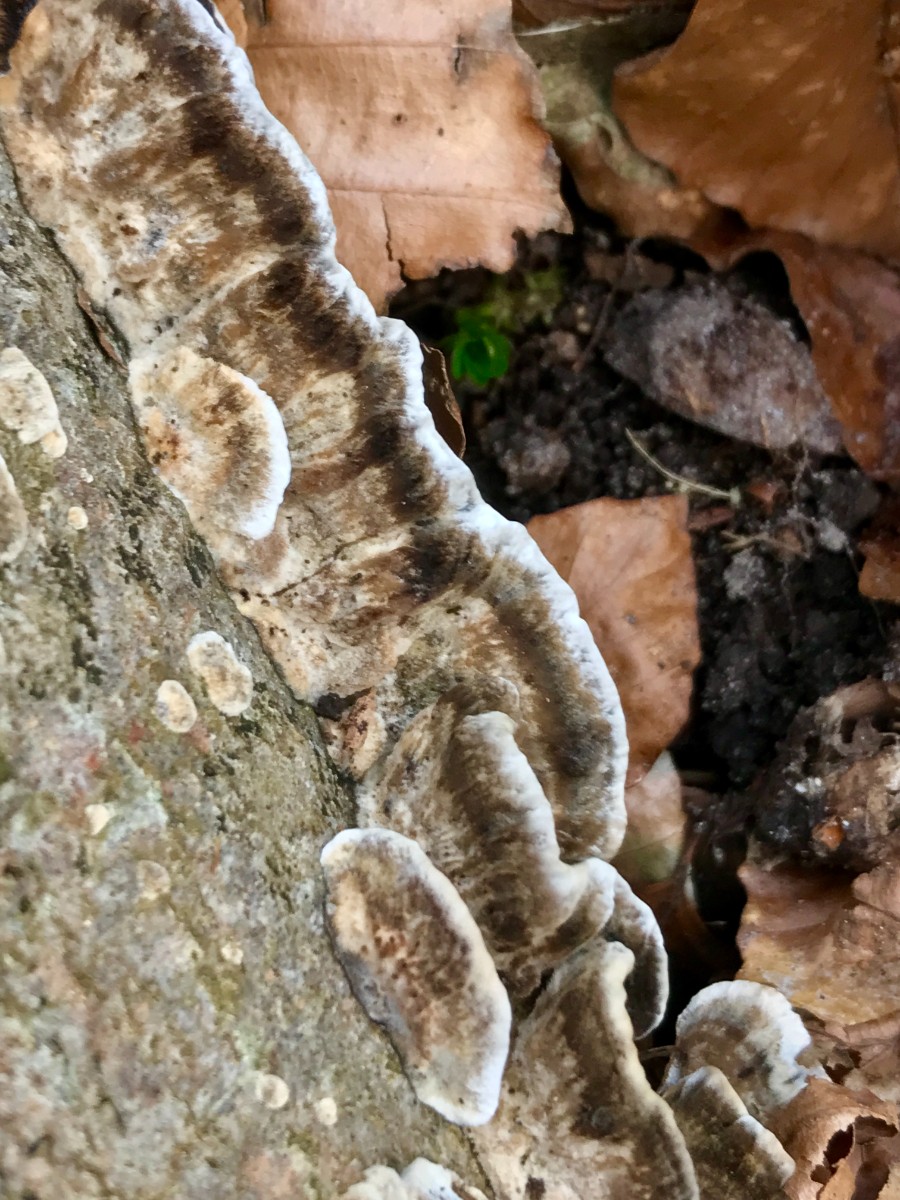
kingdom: Fungi
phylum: Basidiomycota
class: Agaricomycetes
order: Polyporales
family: Phanerochaetaceae
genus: Bjerkandera
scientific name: Bjerkandera adusta
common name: sveden sodporesvamp
